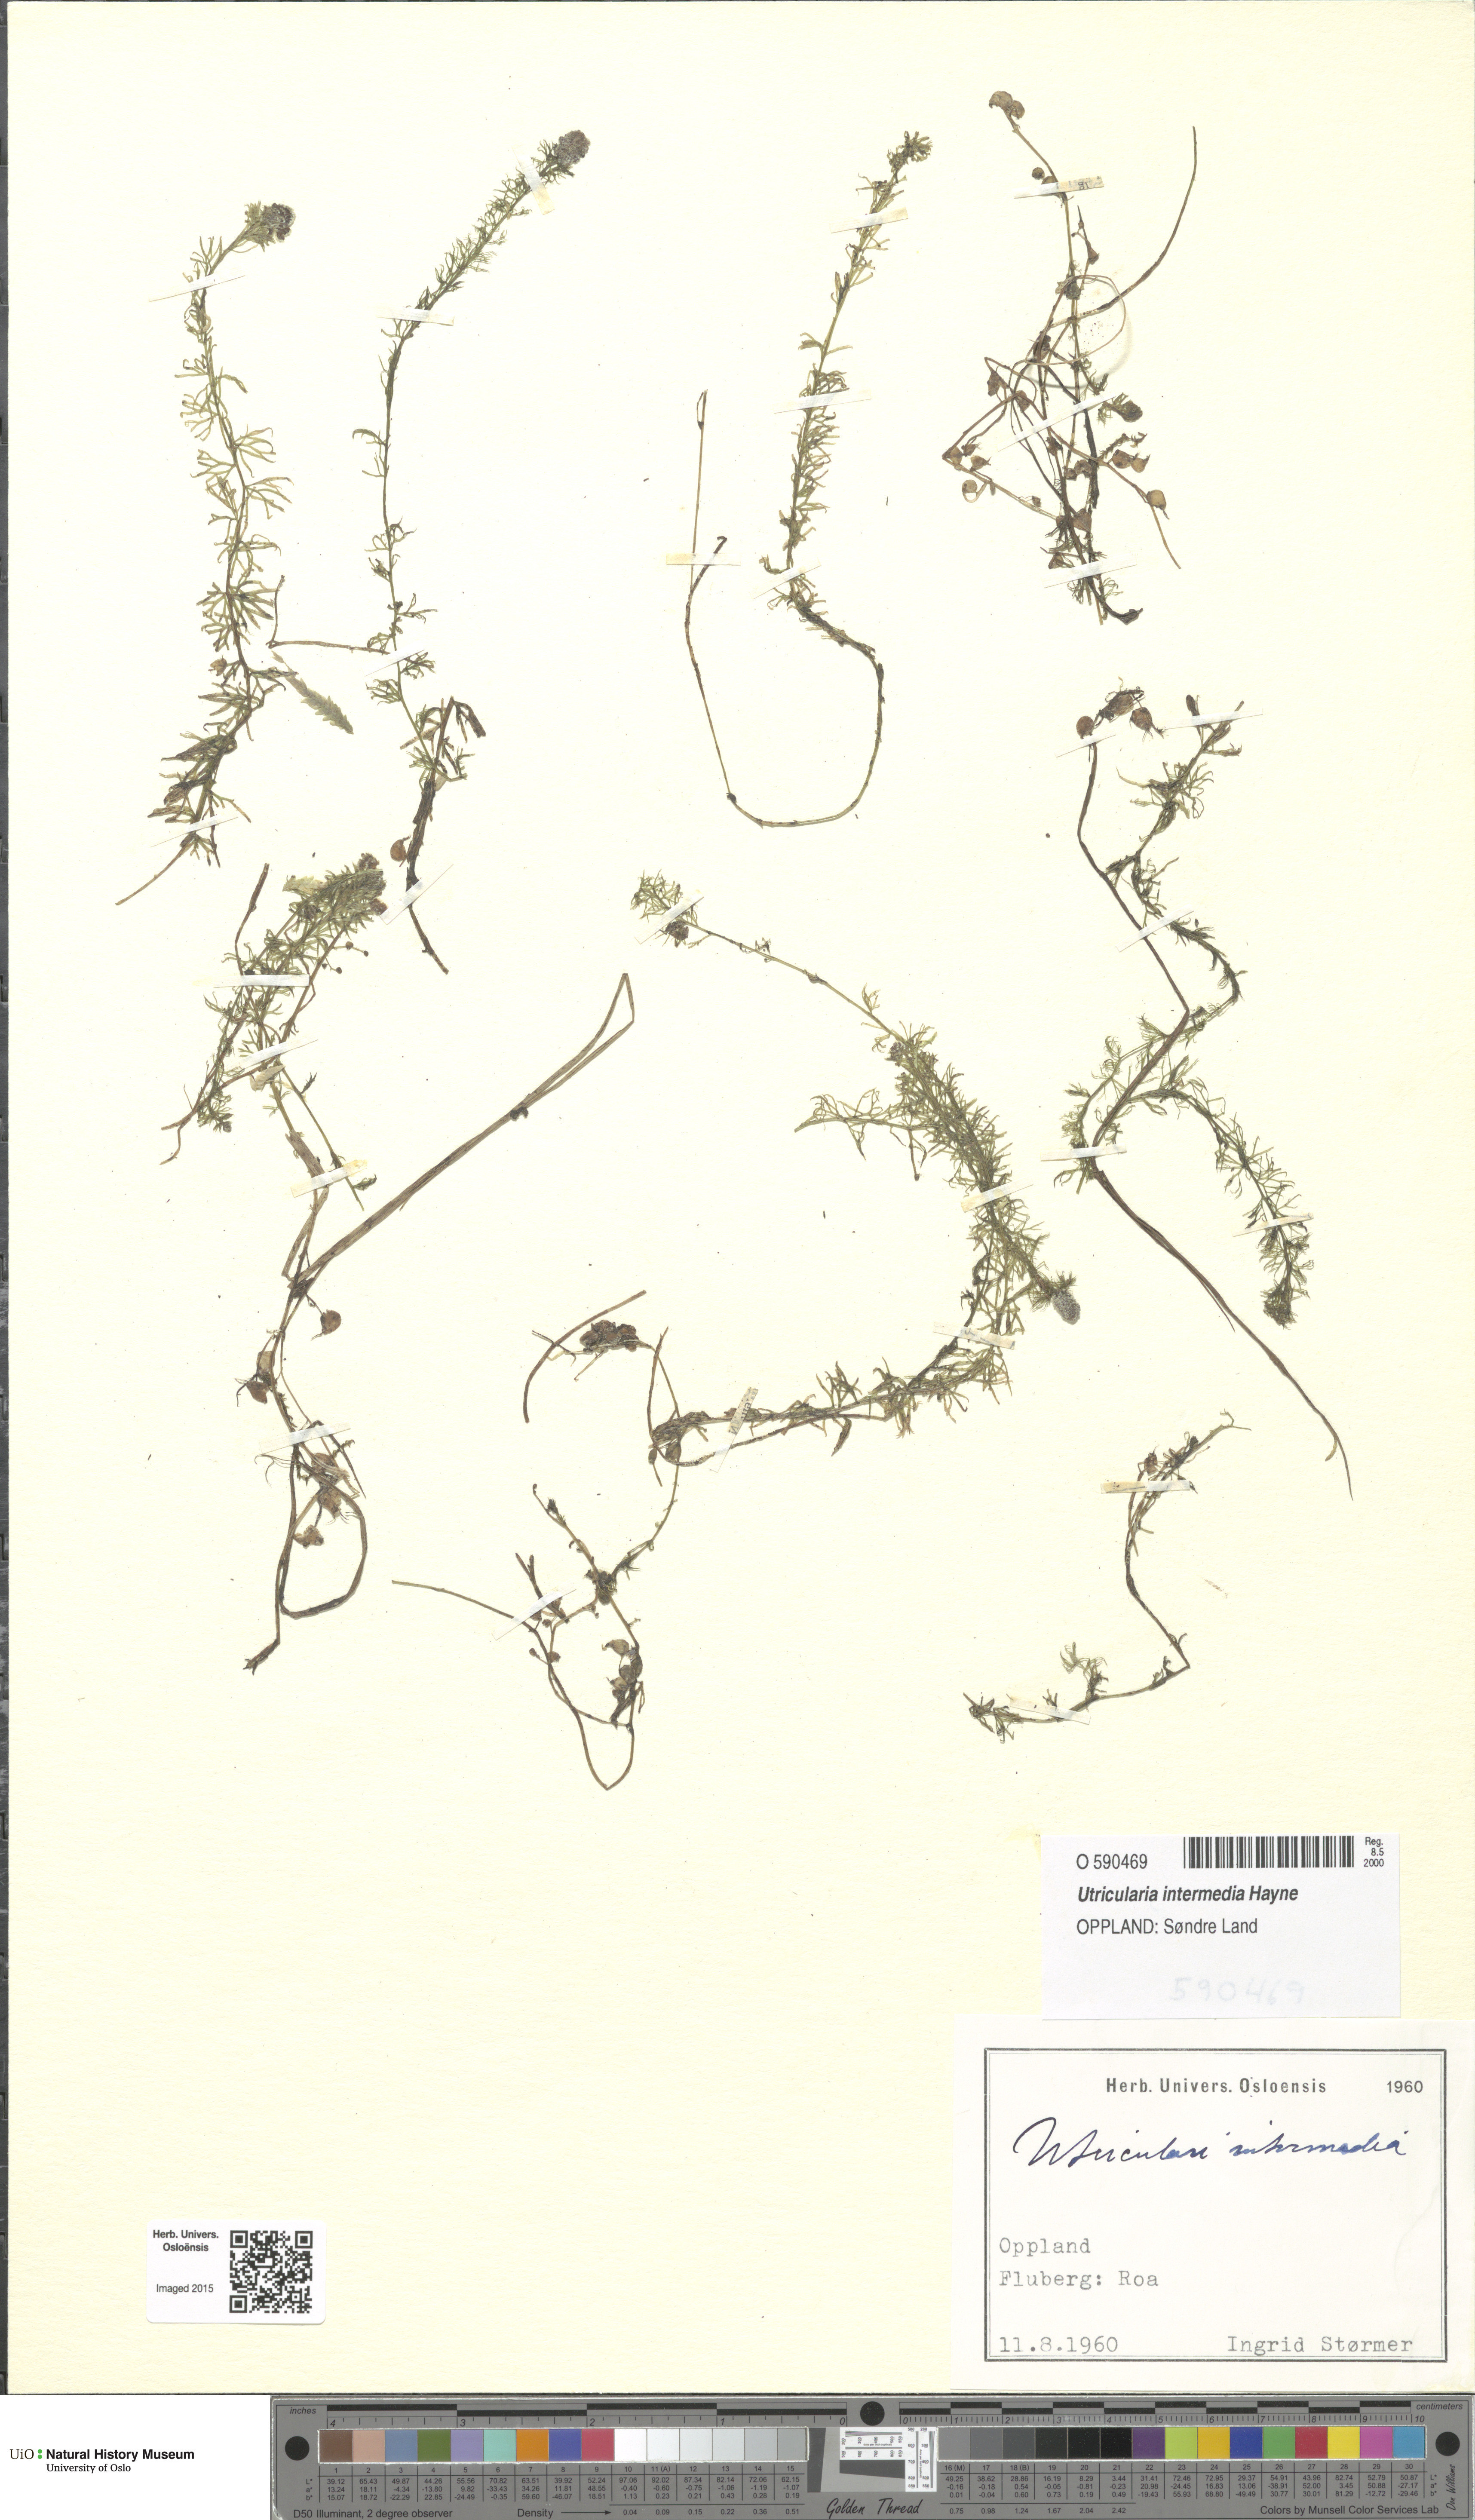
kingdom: Plantae
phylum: Tracheophyta
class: Magnoliopsida
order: Lamiales
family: Lentibulariaceae
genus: Utricularia
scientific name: Utricularia intermedia
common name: Intermediate bladderwort
